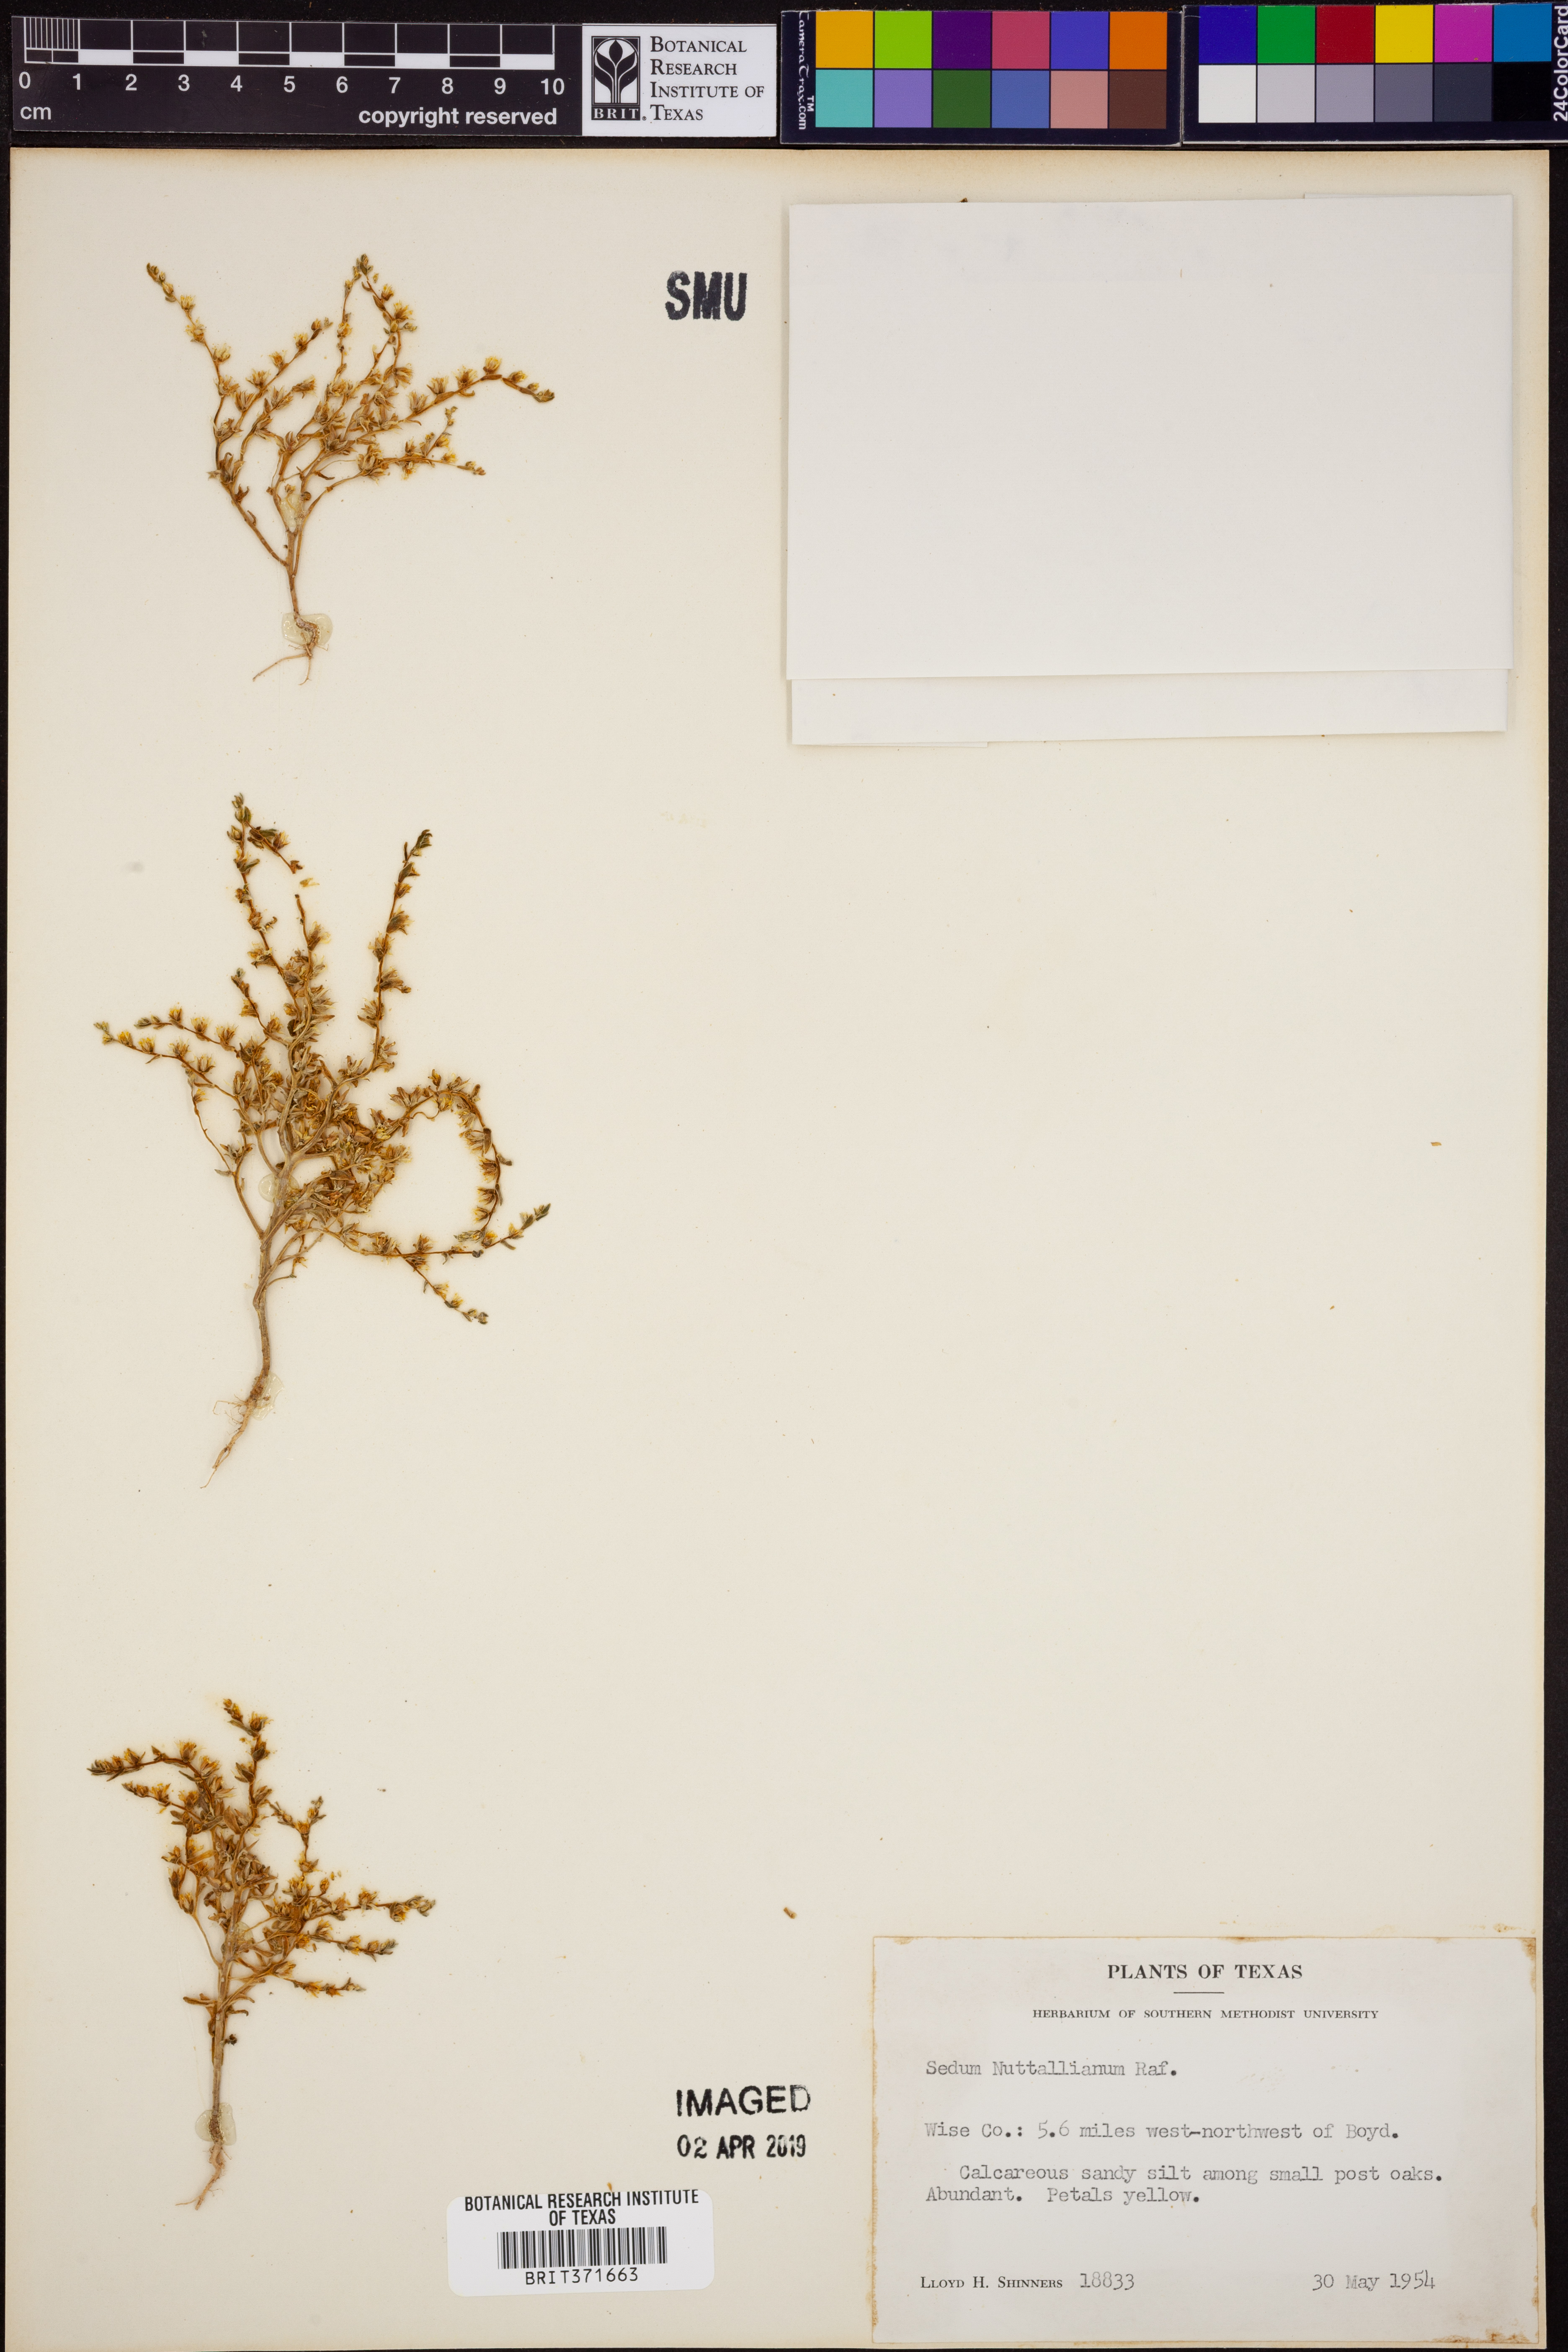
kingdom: Plantae
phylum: Tracheophyta
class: Magnoliopsida
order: Saxifragales
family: Crassulaceae
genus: Sedum
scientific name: Sedum nuttallii
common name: Yellow stonecrop
